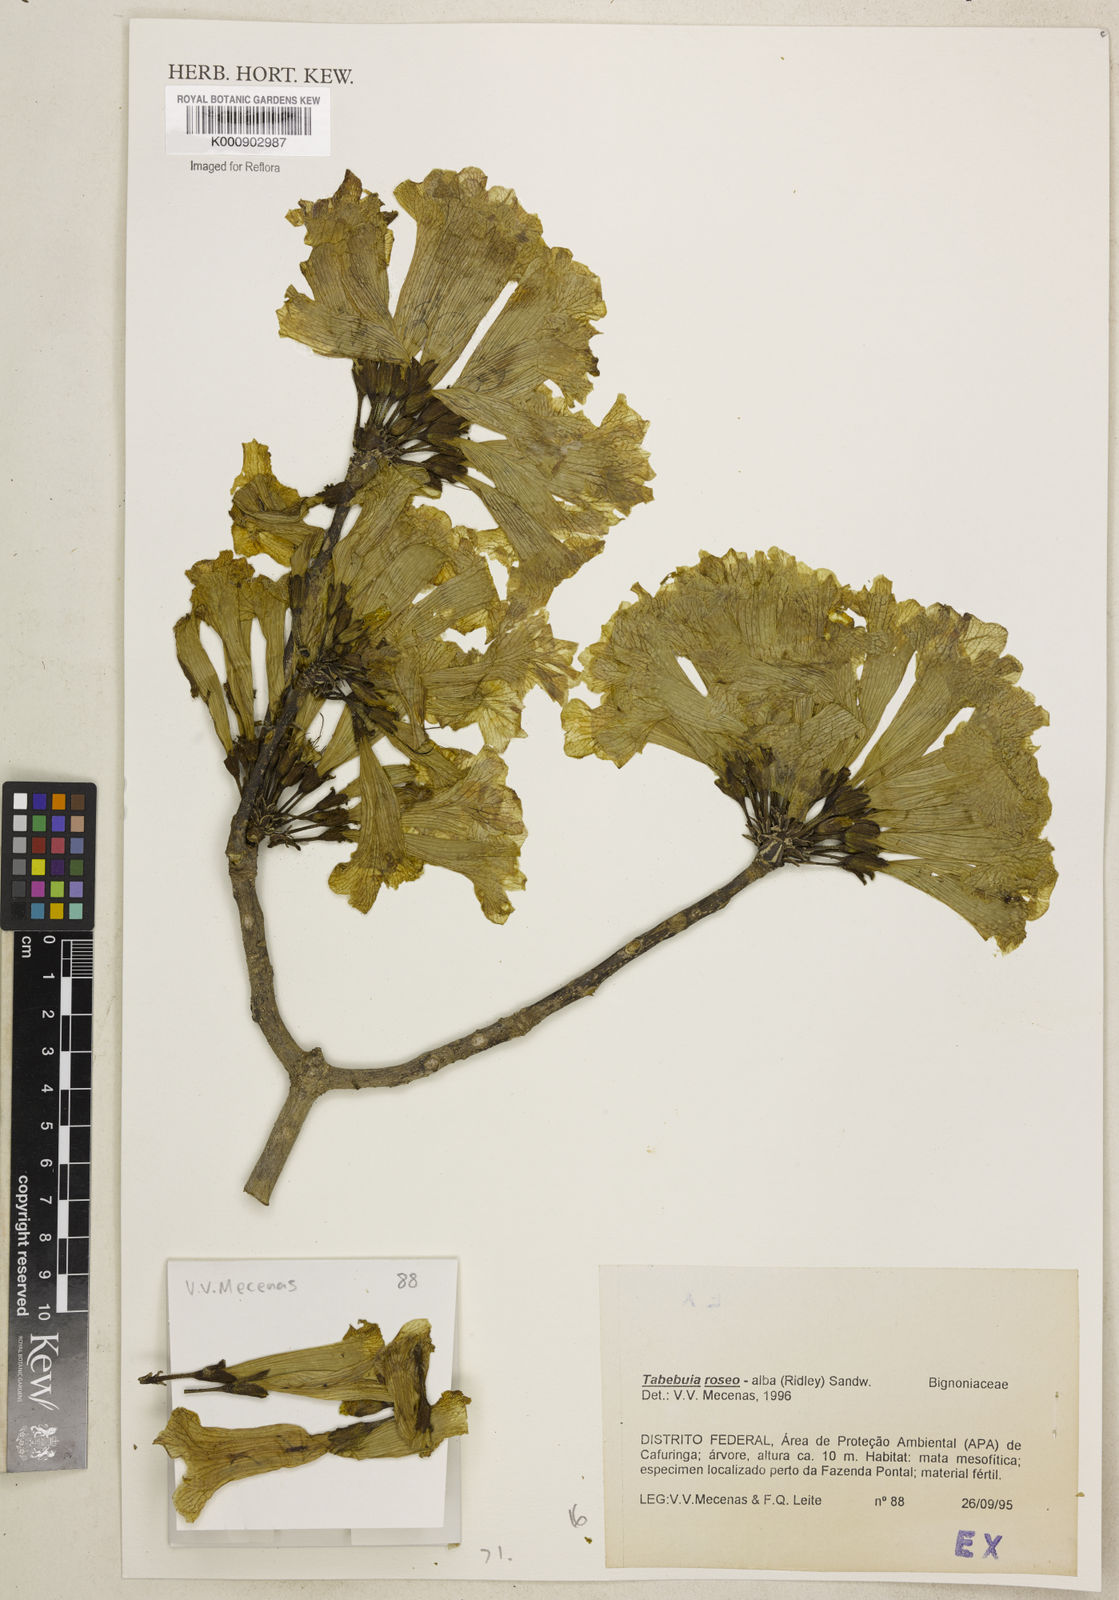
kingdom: Plantae
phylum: Tracheophyta
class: Magnoliopsida
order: Lamiales
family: Bignoniaceae
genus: Tabebuia
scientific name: Tabebuia roseoalba
